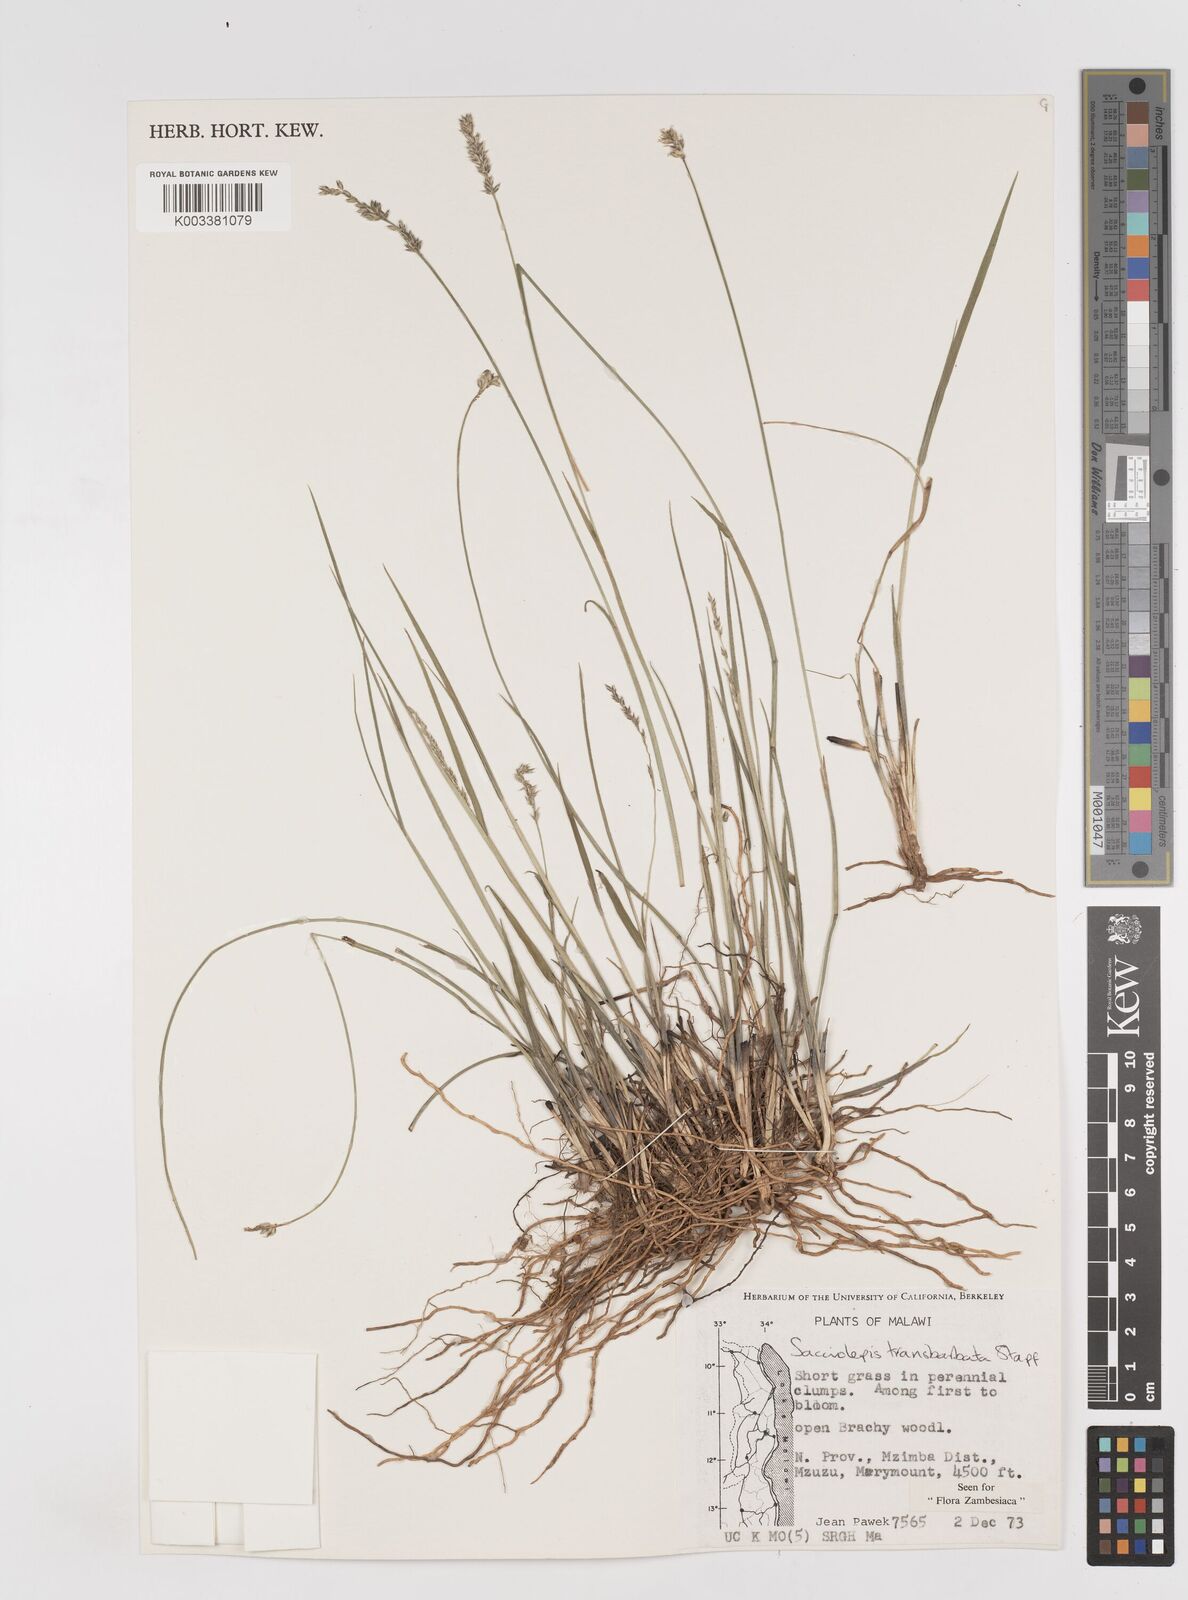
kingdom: Plantae
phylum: Tracheophyta
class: Liliopsida
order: Poales
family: Poaceae
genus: Sacciolepis
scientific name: Sacciolepis transbarbata
